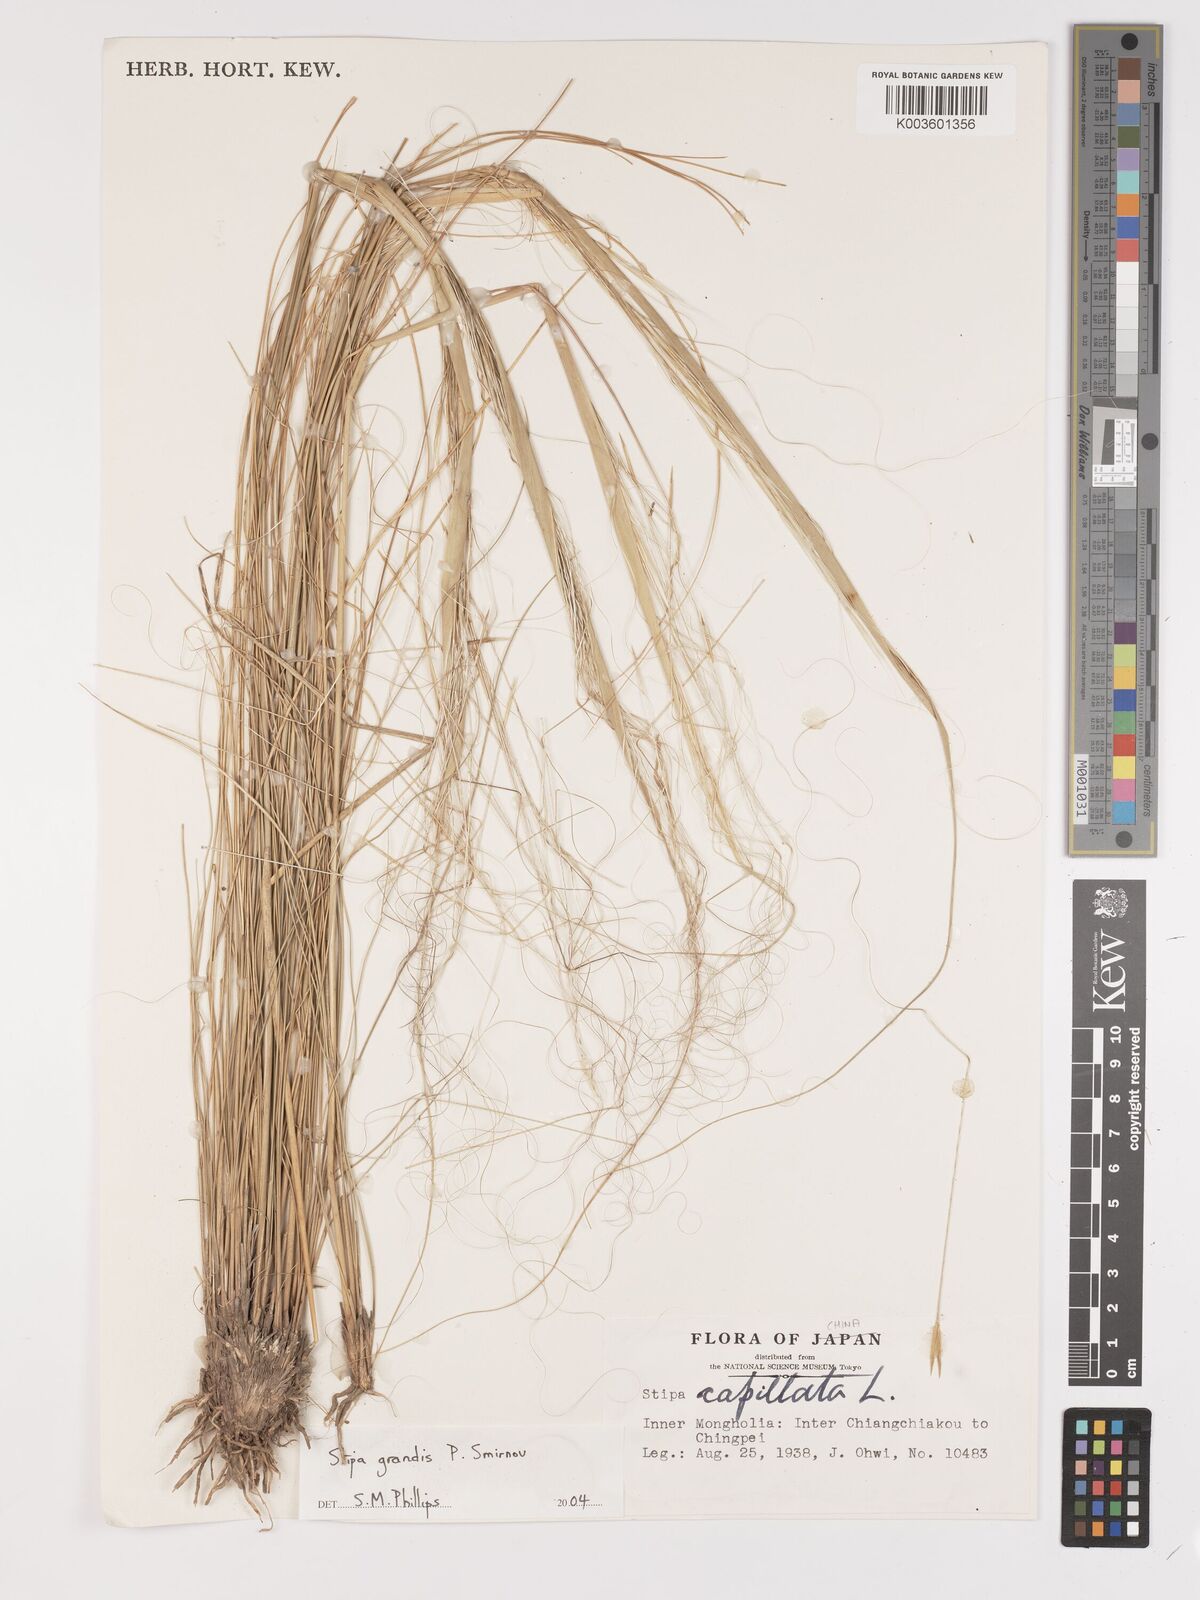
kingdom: Plantae
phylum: Tracheophyta
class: Liliopsida
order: Poales
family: Poaceae
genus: Stipa
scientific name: Stipa grandis
